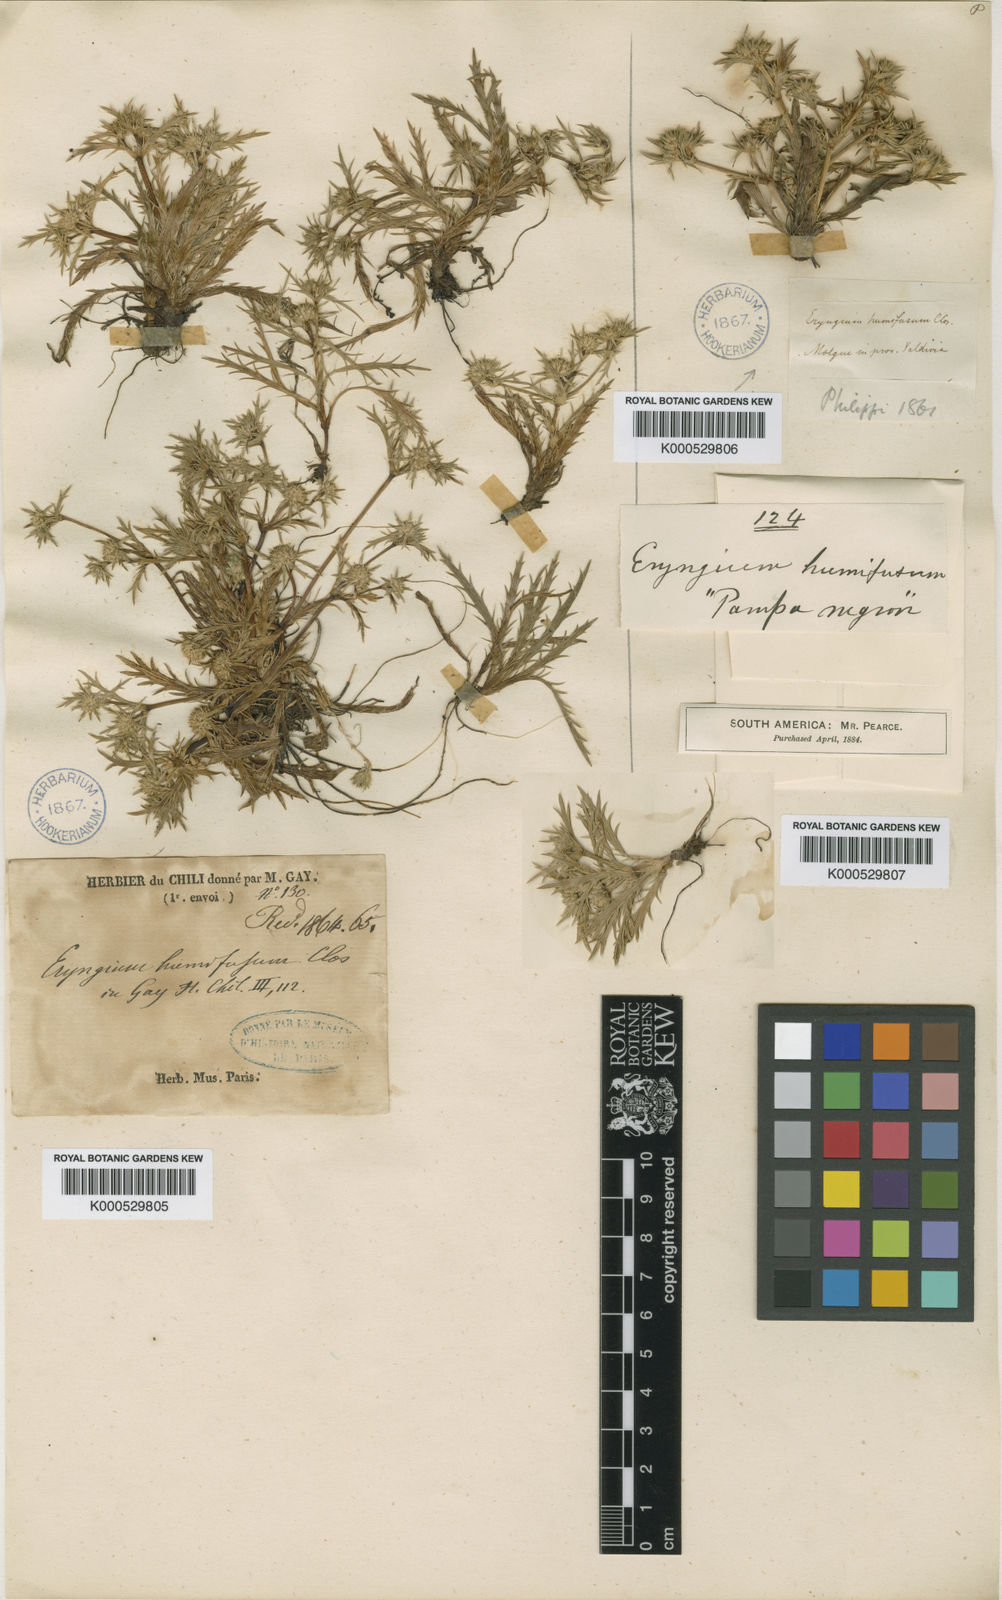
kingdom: Plantae
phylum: Tracheophyta
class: Magnoliopsida
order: Apiales
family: Apiaceae
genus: Eryngium
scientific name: Eryngium humifusum
